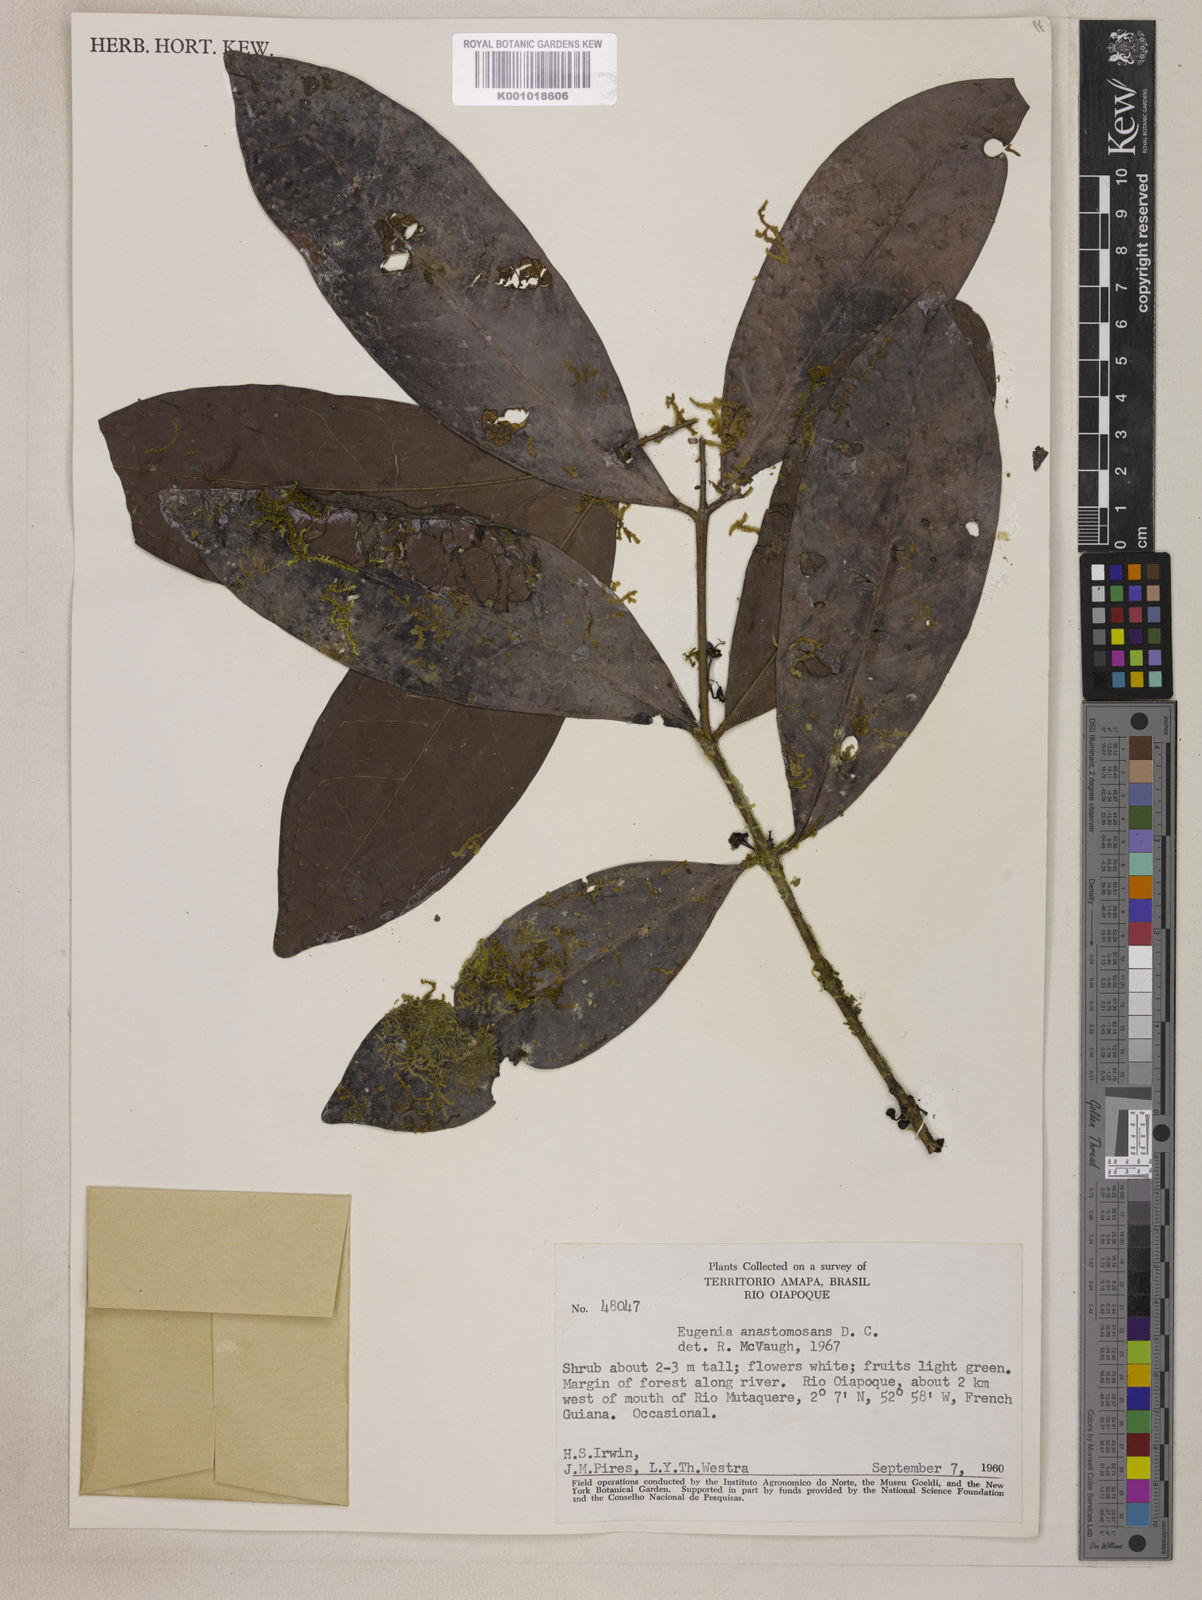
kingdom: Plantae
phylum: Tracheophyta
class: Magnoliopsida
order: Myrtales
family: Myrtaceae
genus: Eugenia
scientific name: Eugenia anastomosans
